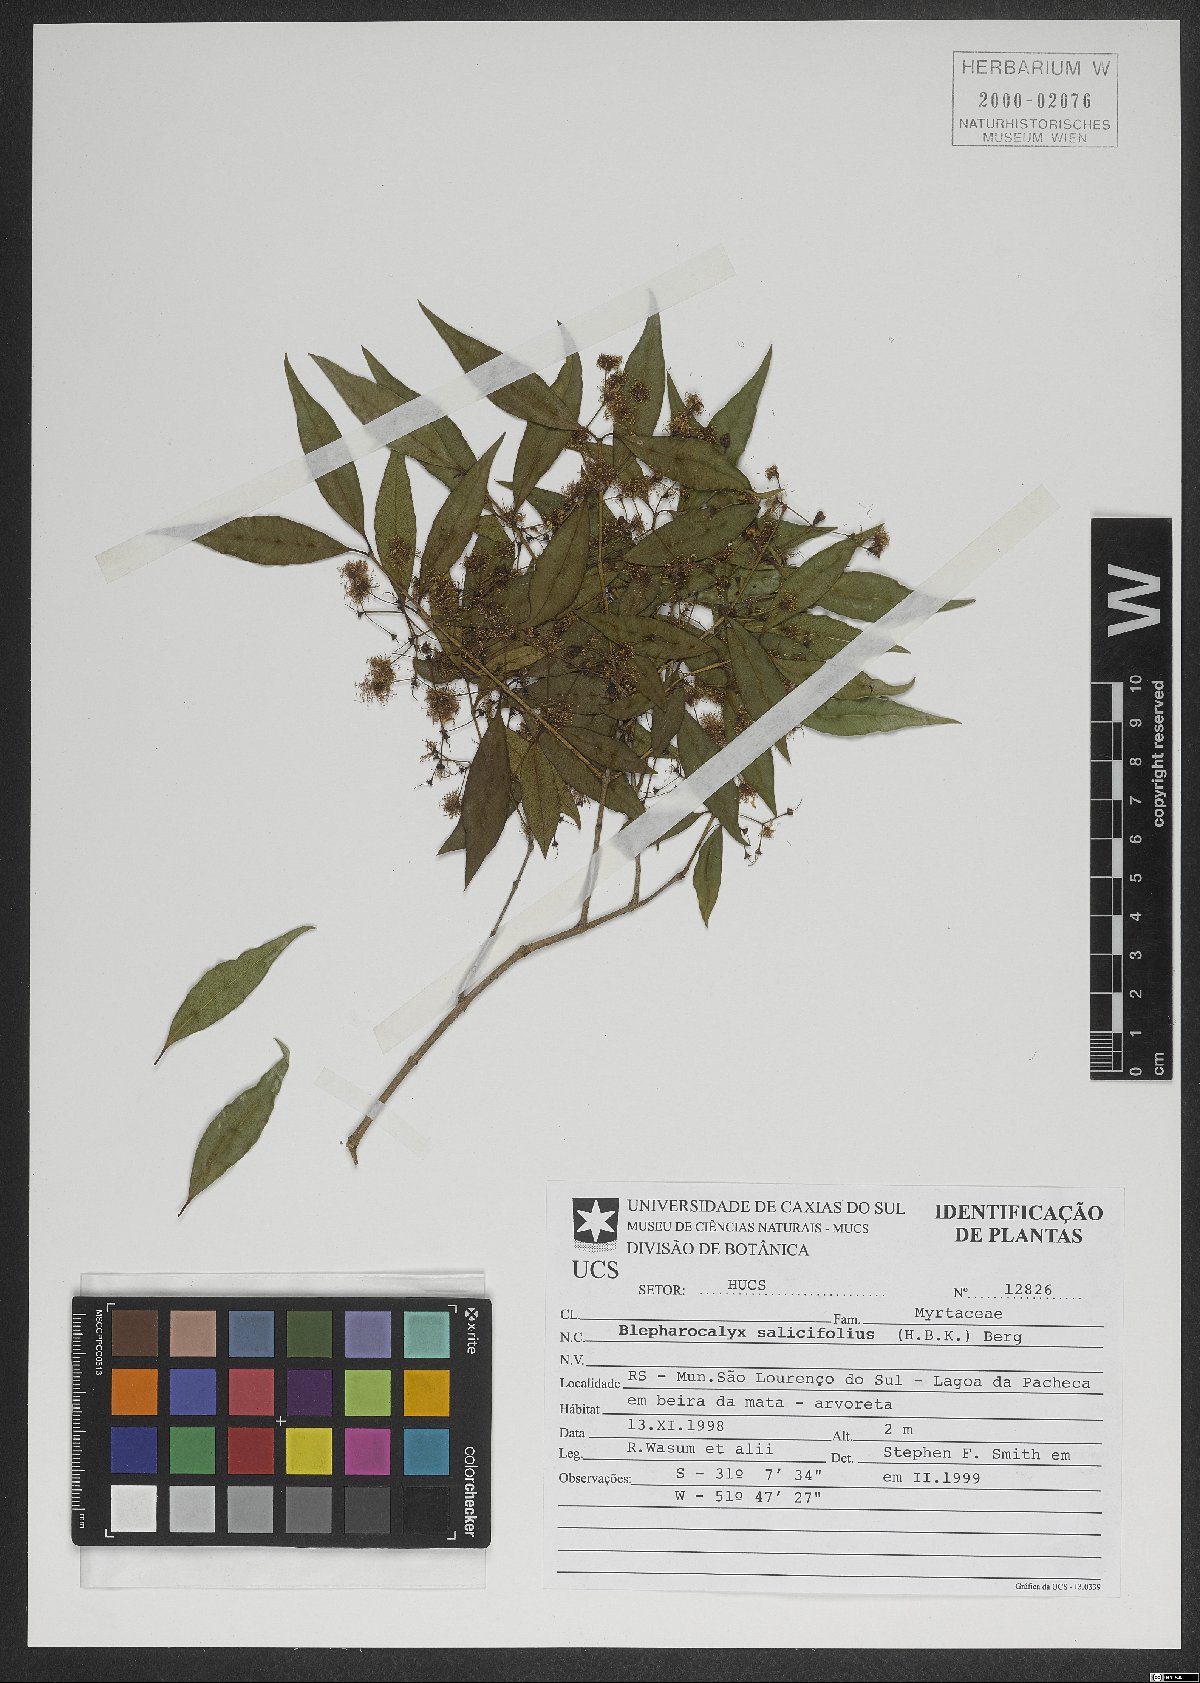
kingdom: Plantae
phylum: Tracheophyta
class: Magnoliopsida
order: Myrtales
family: Myrtaceae
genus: Blepharocalyx
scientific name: Blepharocalyx salicifolius
